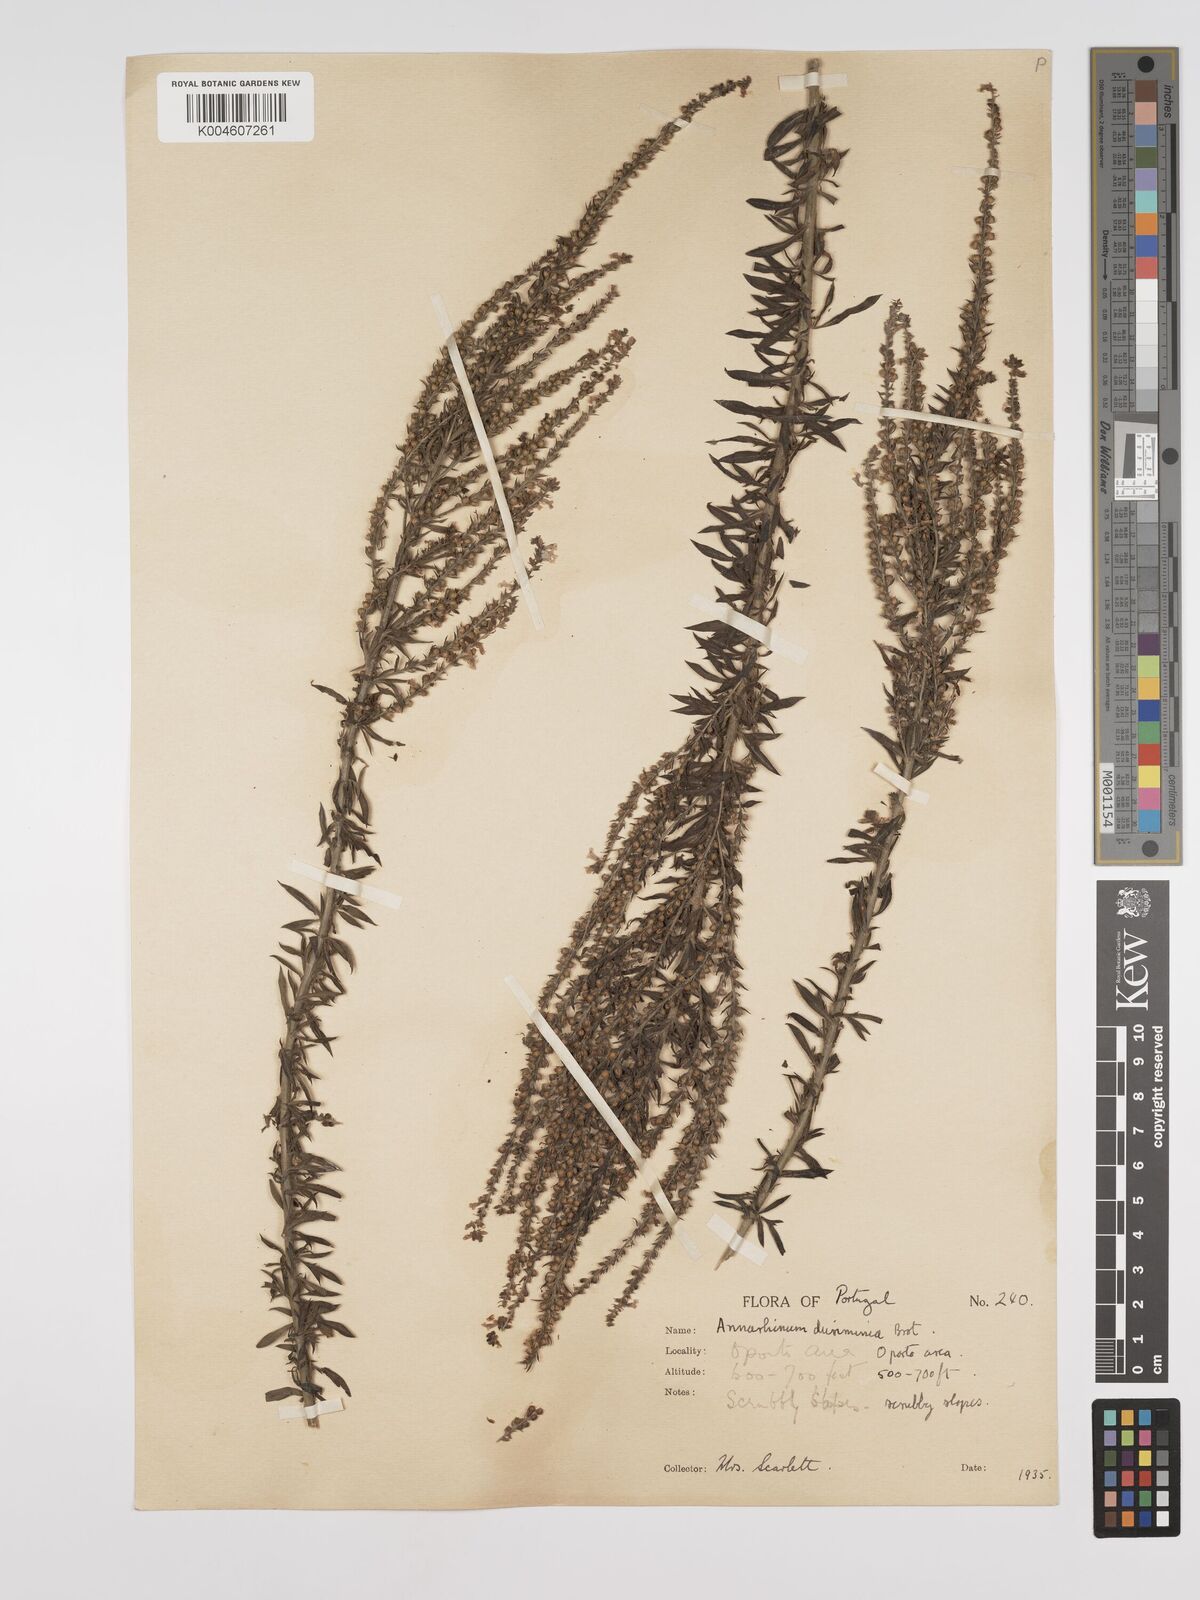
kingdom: Plantae
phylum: Tracheophyta
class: Magnoliopsida
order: Lamiales
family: Plantaginaceae
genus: Anarrhinum
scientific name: Anarrhinum duriminium
